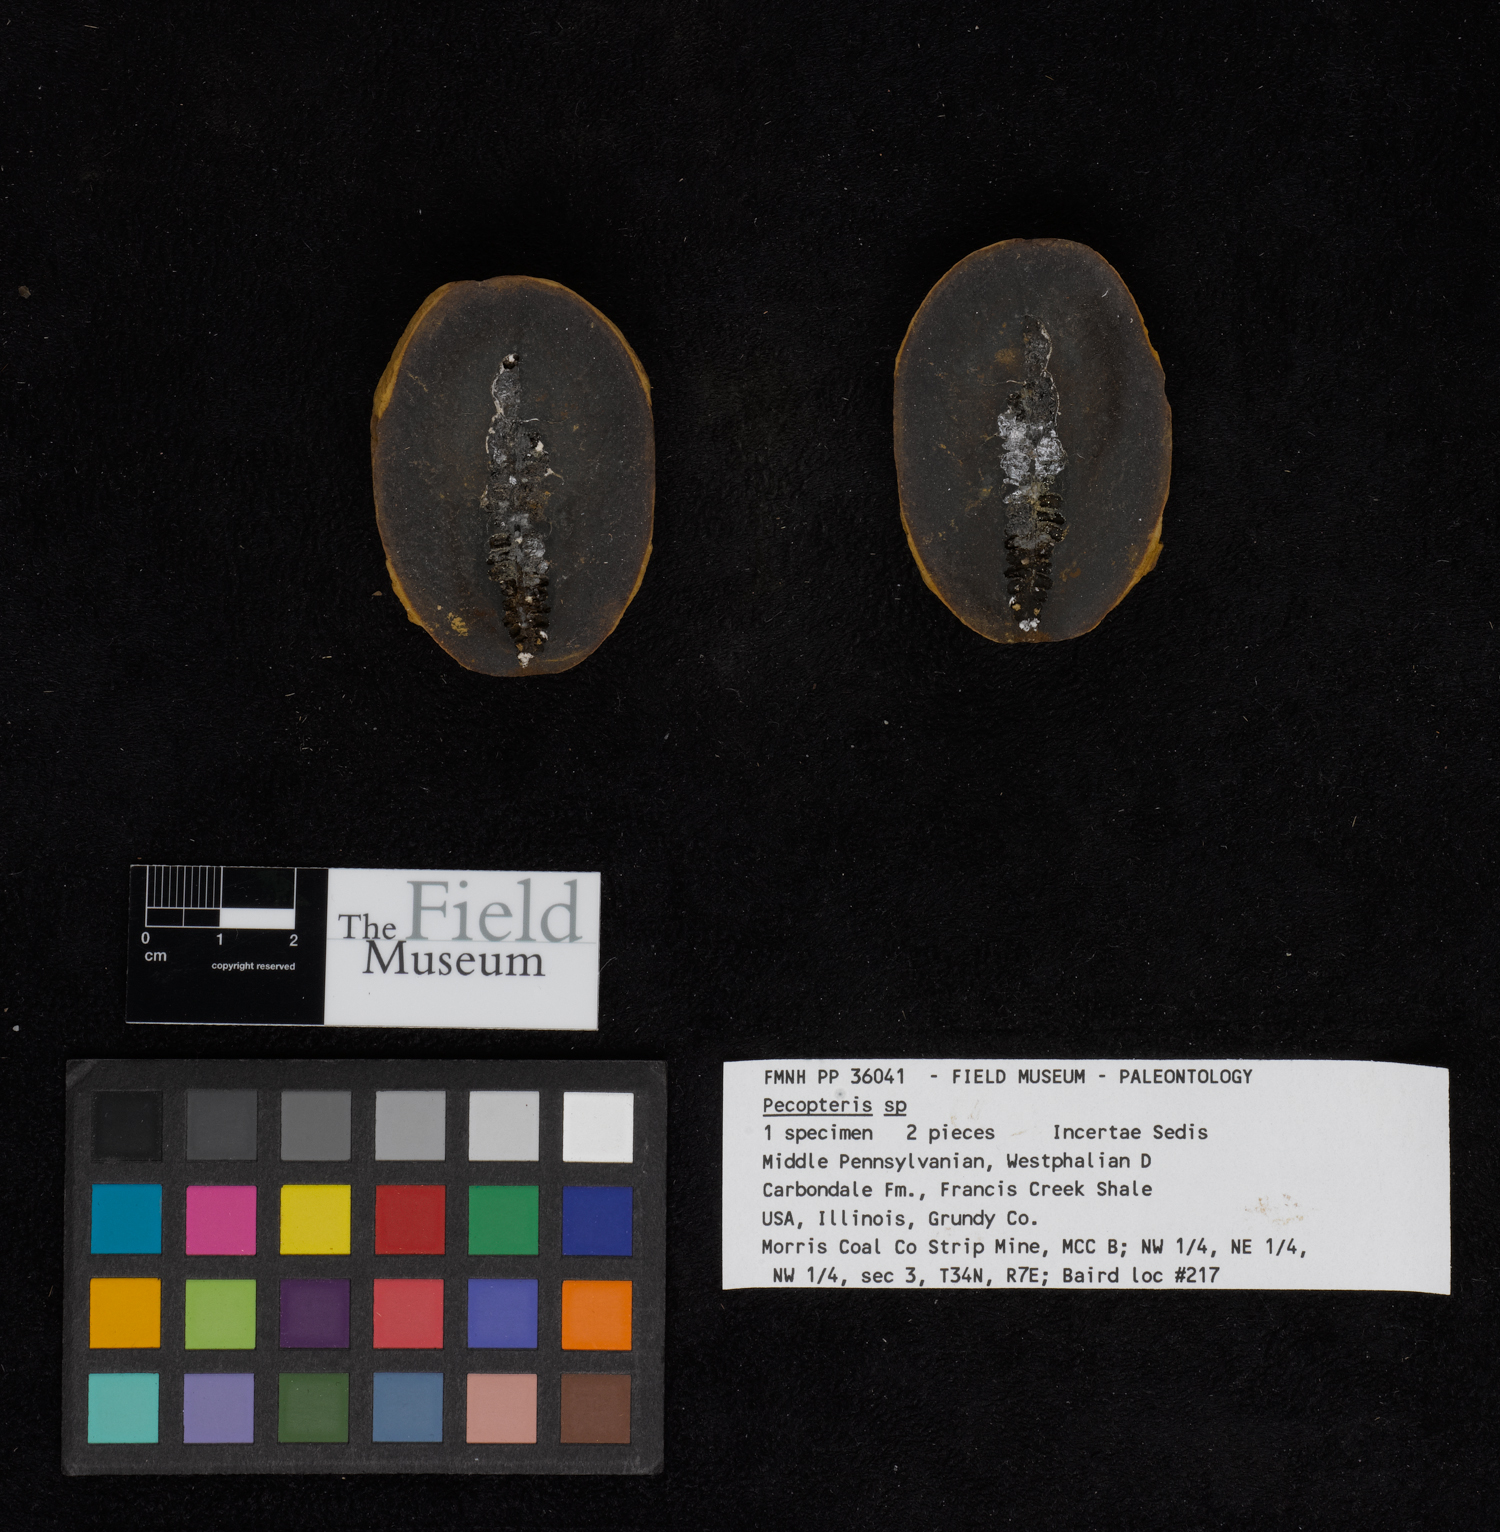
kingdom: Plantae
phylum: Tracheophyta
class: Polypodiopsida
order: Marattiales
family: Asterothecaceae
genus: Pecopteris
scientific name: Pecopteris
